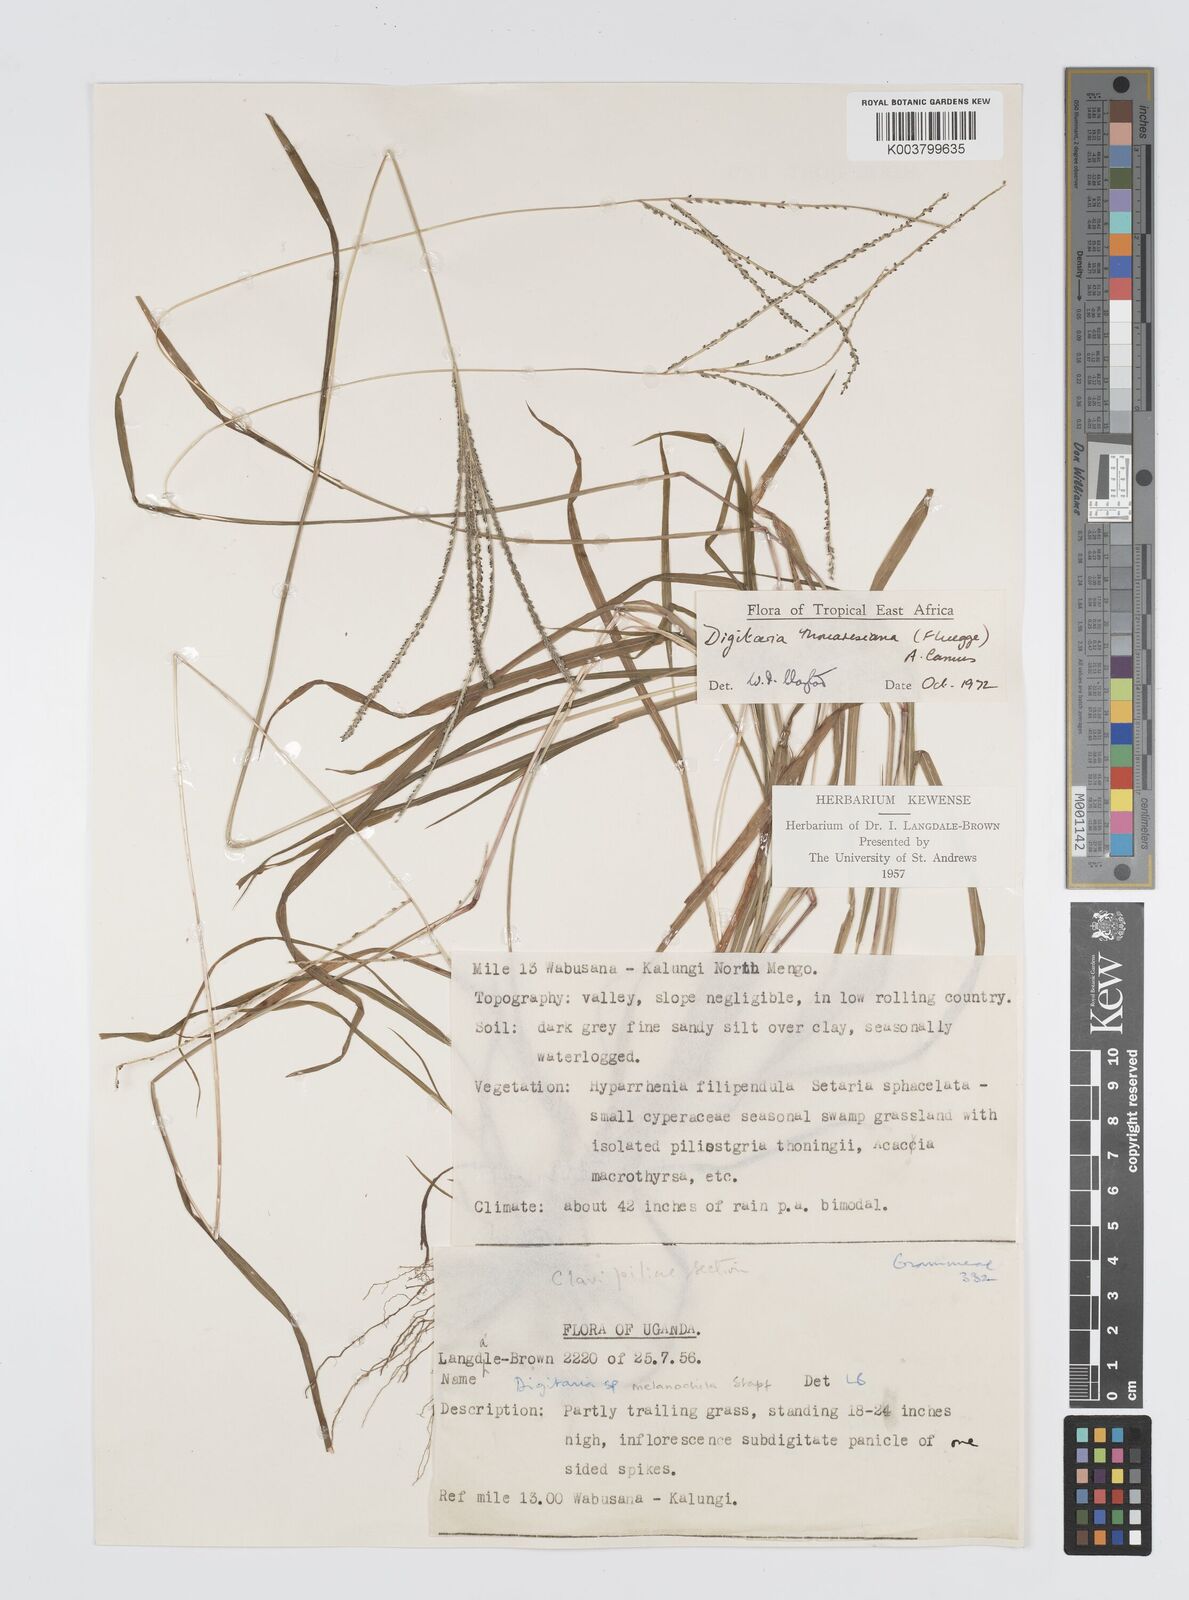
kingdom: Plantae
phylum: Tracheophyta
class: Liliopsida
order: Poales
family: Poaceae
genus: Digitaria
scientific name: Digitaria thouarsiana
